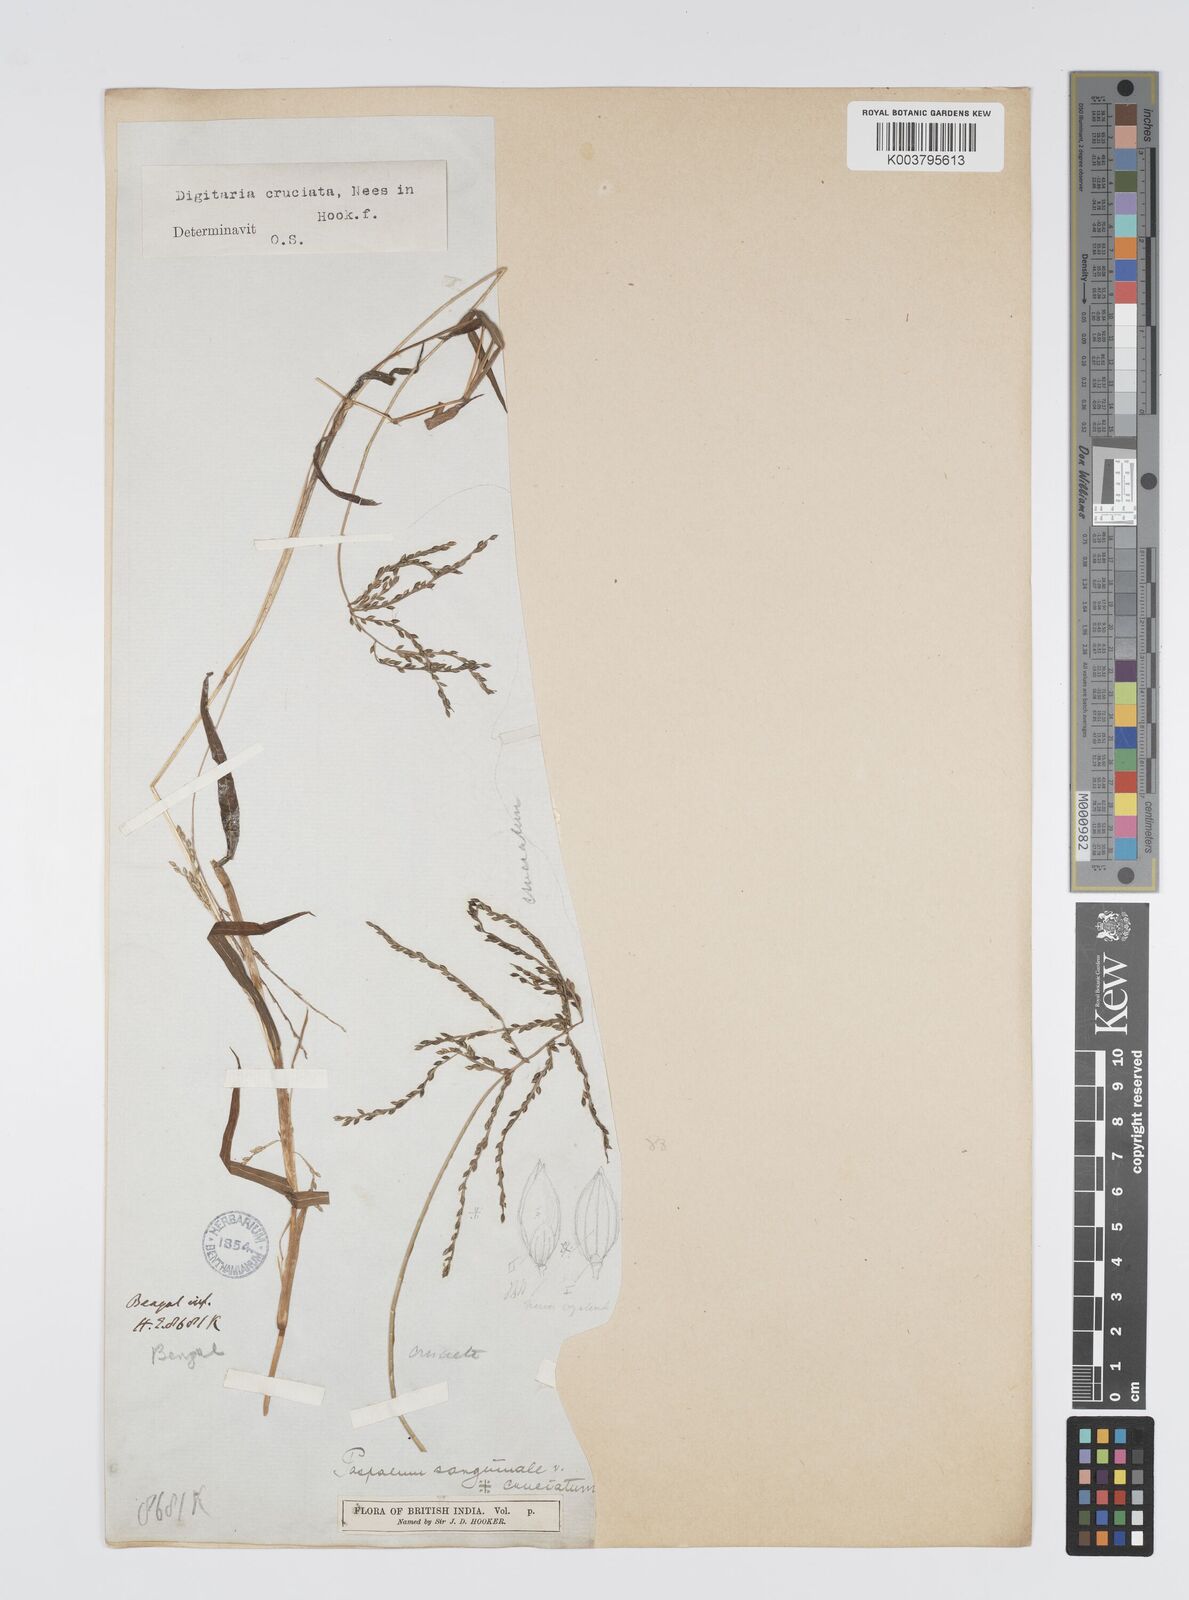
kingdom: Plantae
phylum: Tracheophyta
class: Liliopsida
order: Poales
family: Poaceae
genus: Digitaria
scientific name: Digitaria sanguinalis
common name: Hairy crabgrass
